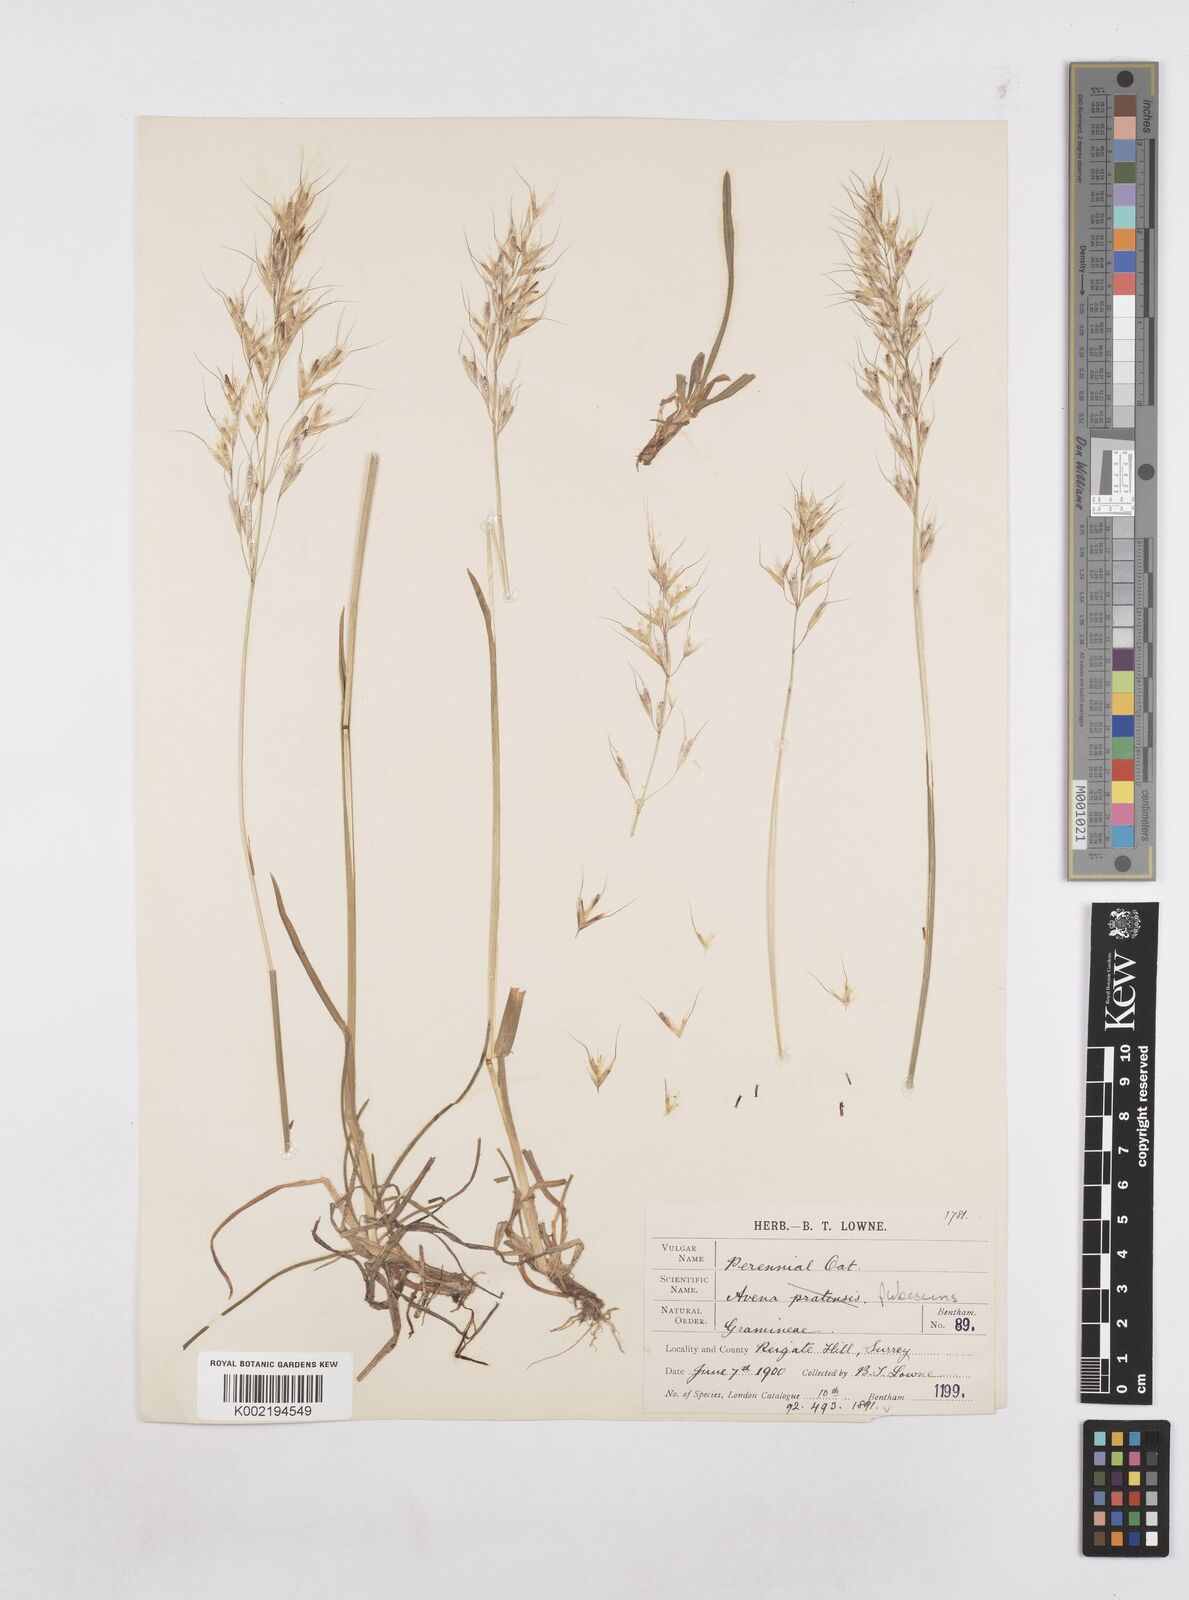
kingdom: Plantae
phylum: Tracheophyta
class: Liliopsida
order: Poales
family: Poaceae
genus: Avenula
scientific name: Avenula pubescens
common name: Downy alpine oatgrass
